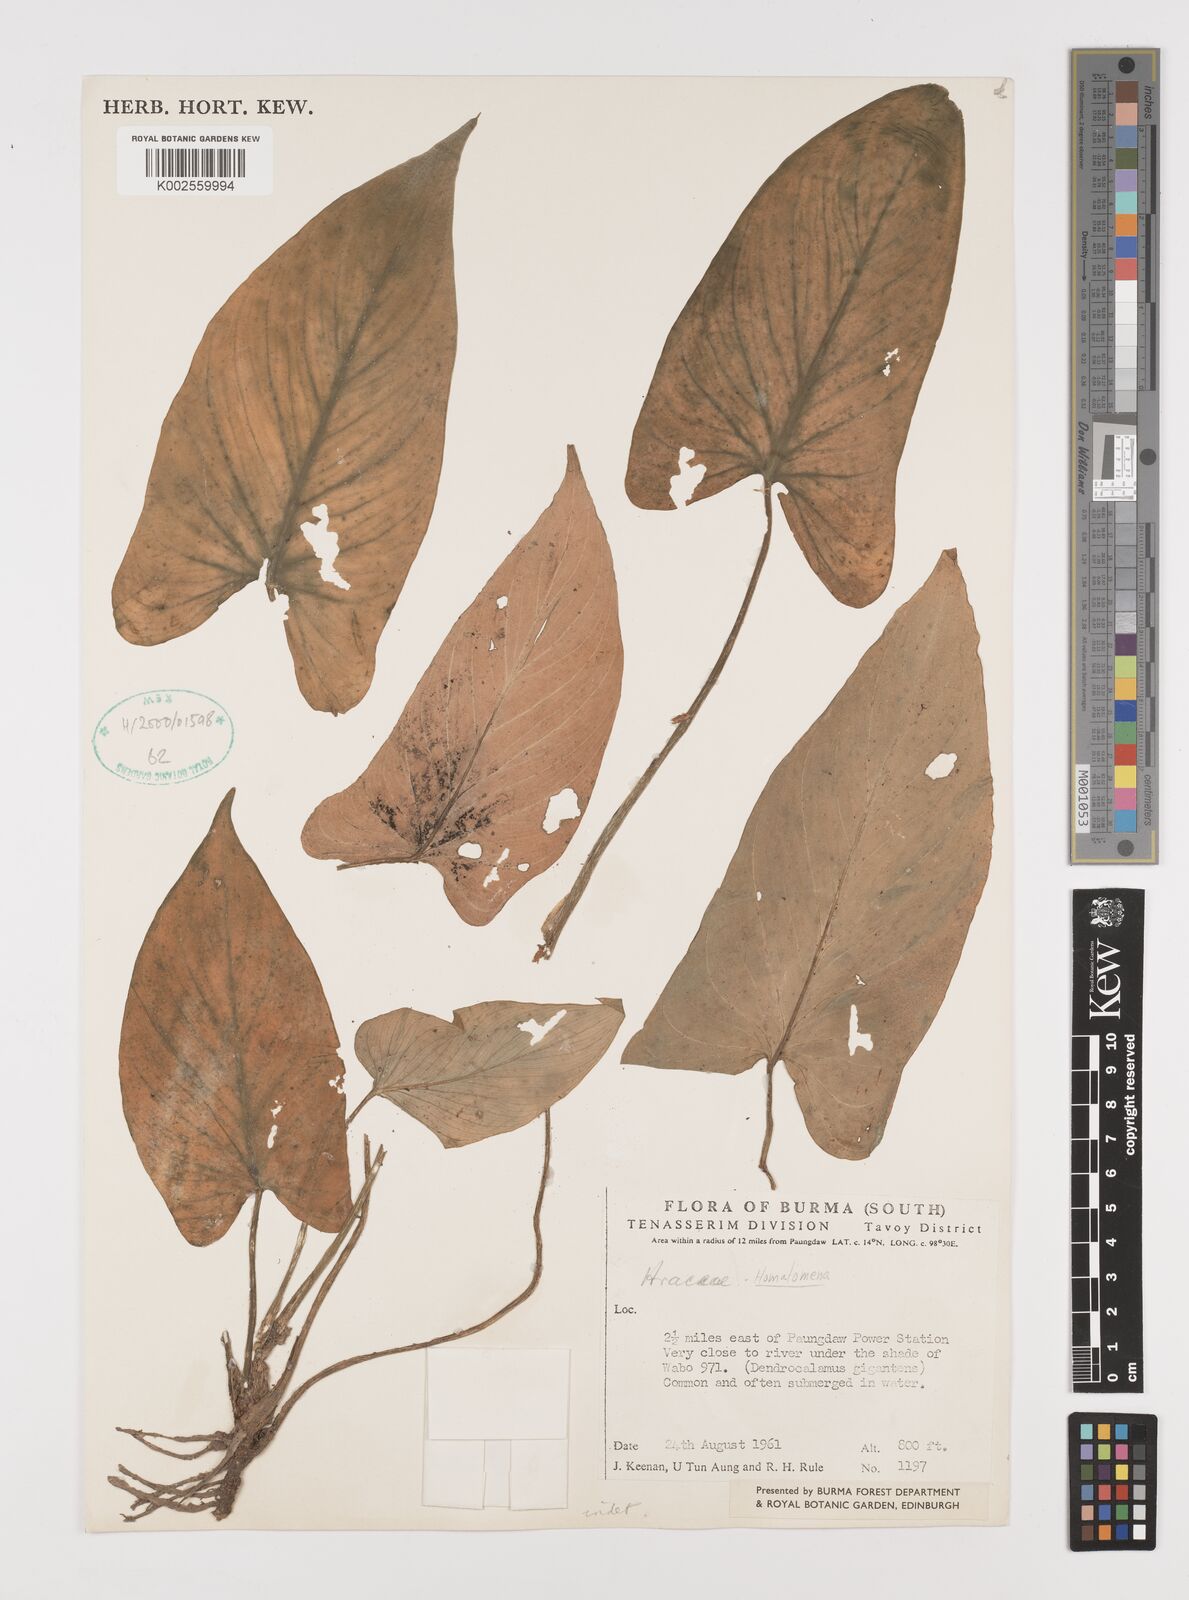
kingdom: Plantae
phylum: Tracheophyta
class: Liliopsida
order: Alismatales
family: Araceae
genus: Homalomena
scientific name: Homalomena
